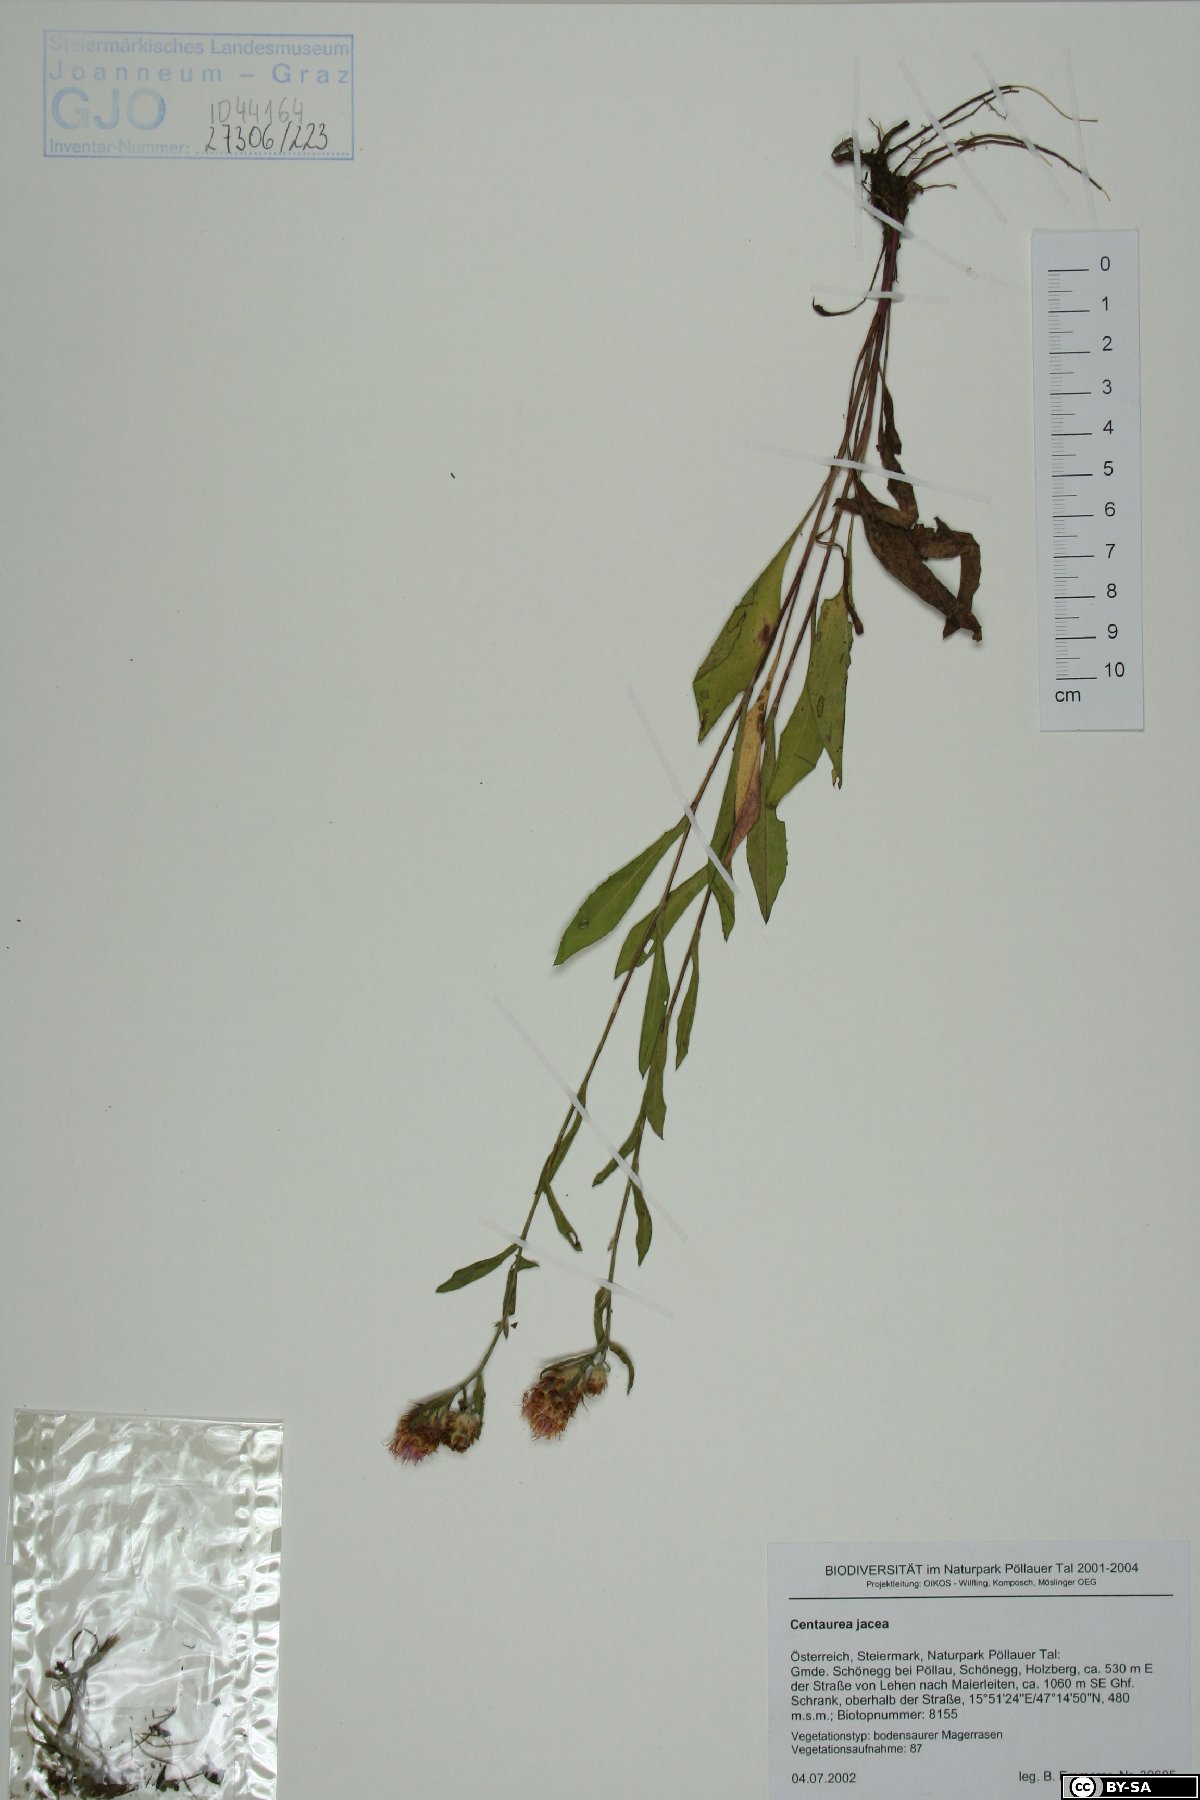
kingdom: Plantae
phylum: Tracheophyta
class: Magnoliopsida
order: Asterales
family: Asteraceae
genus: Centaurea
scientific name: Centaurea jacea
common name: Brown knapweed
